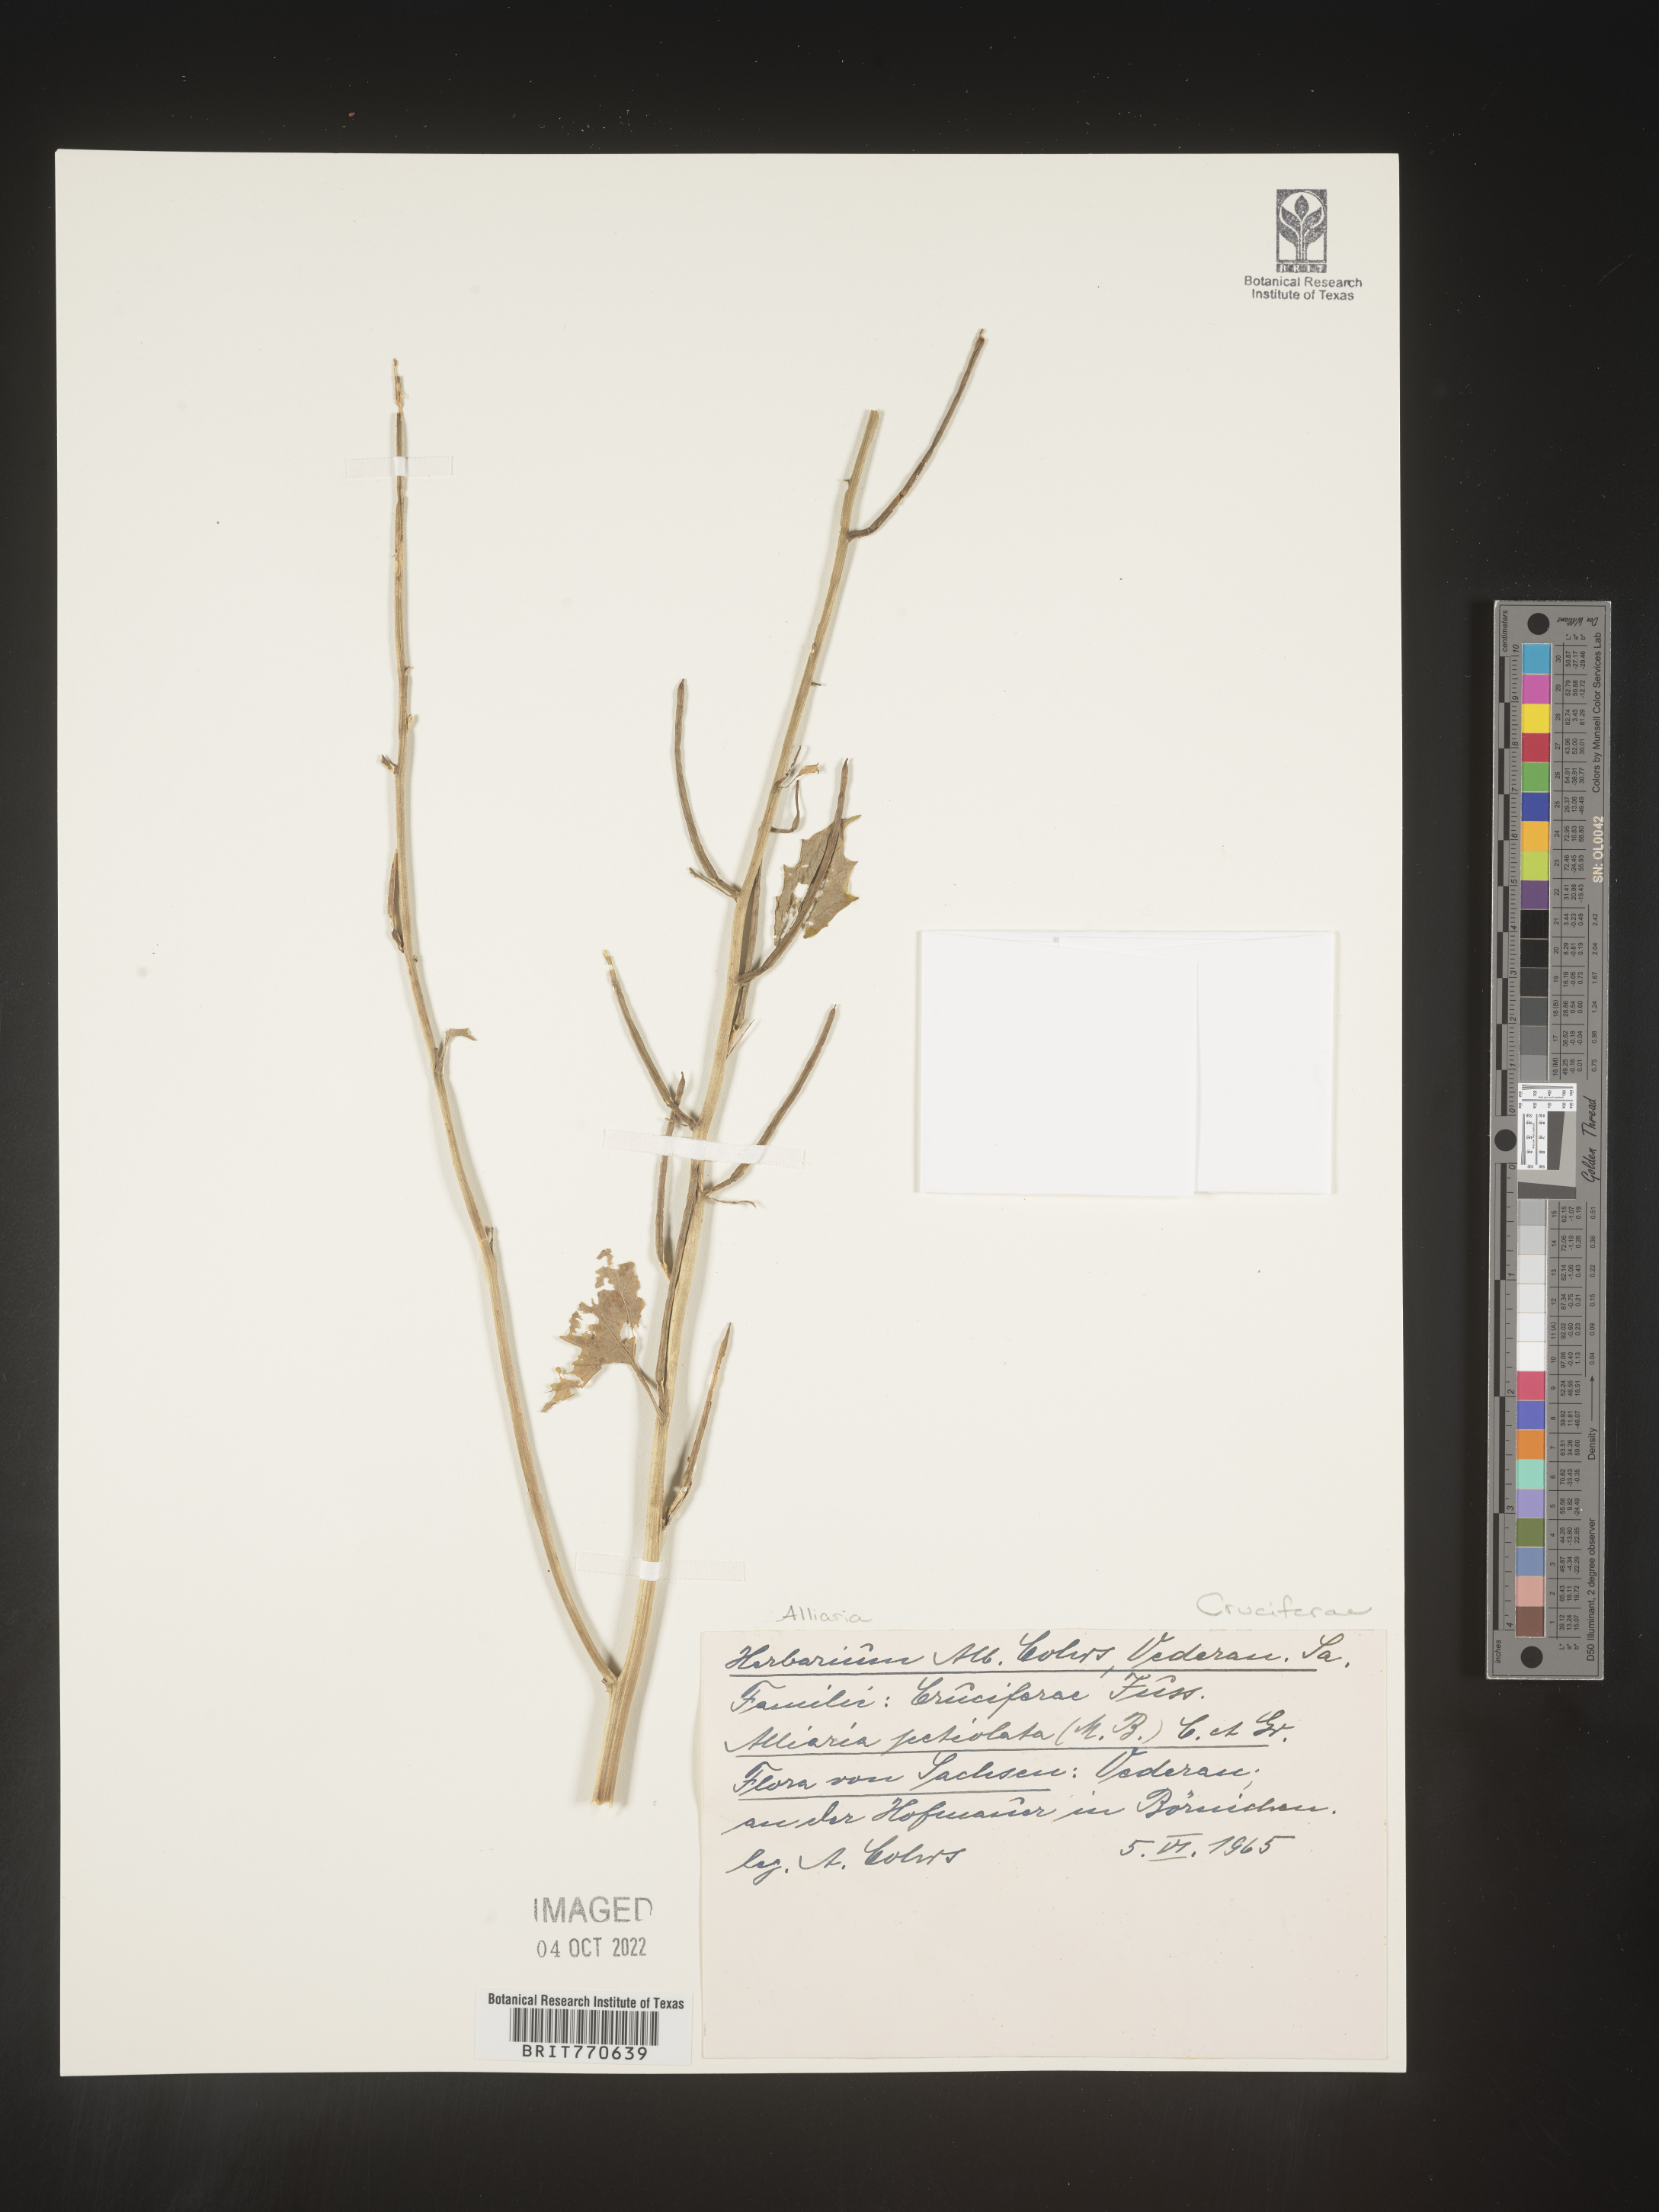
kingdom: Plantae
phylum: Tracheophyta
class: Magnoliopsida
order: Brassicales
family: Brassicaceae
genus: Alliaria
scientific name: Alliaria
